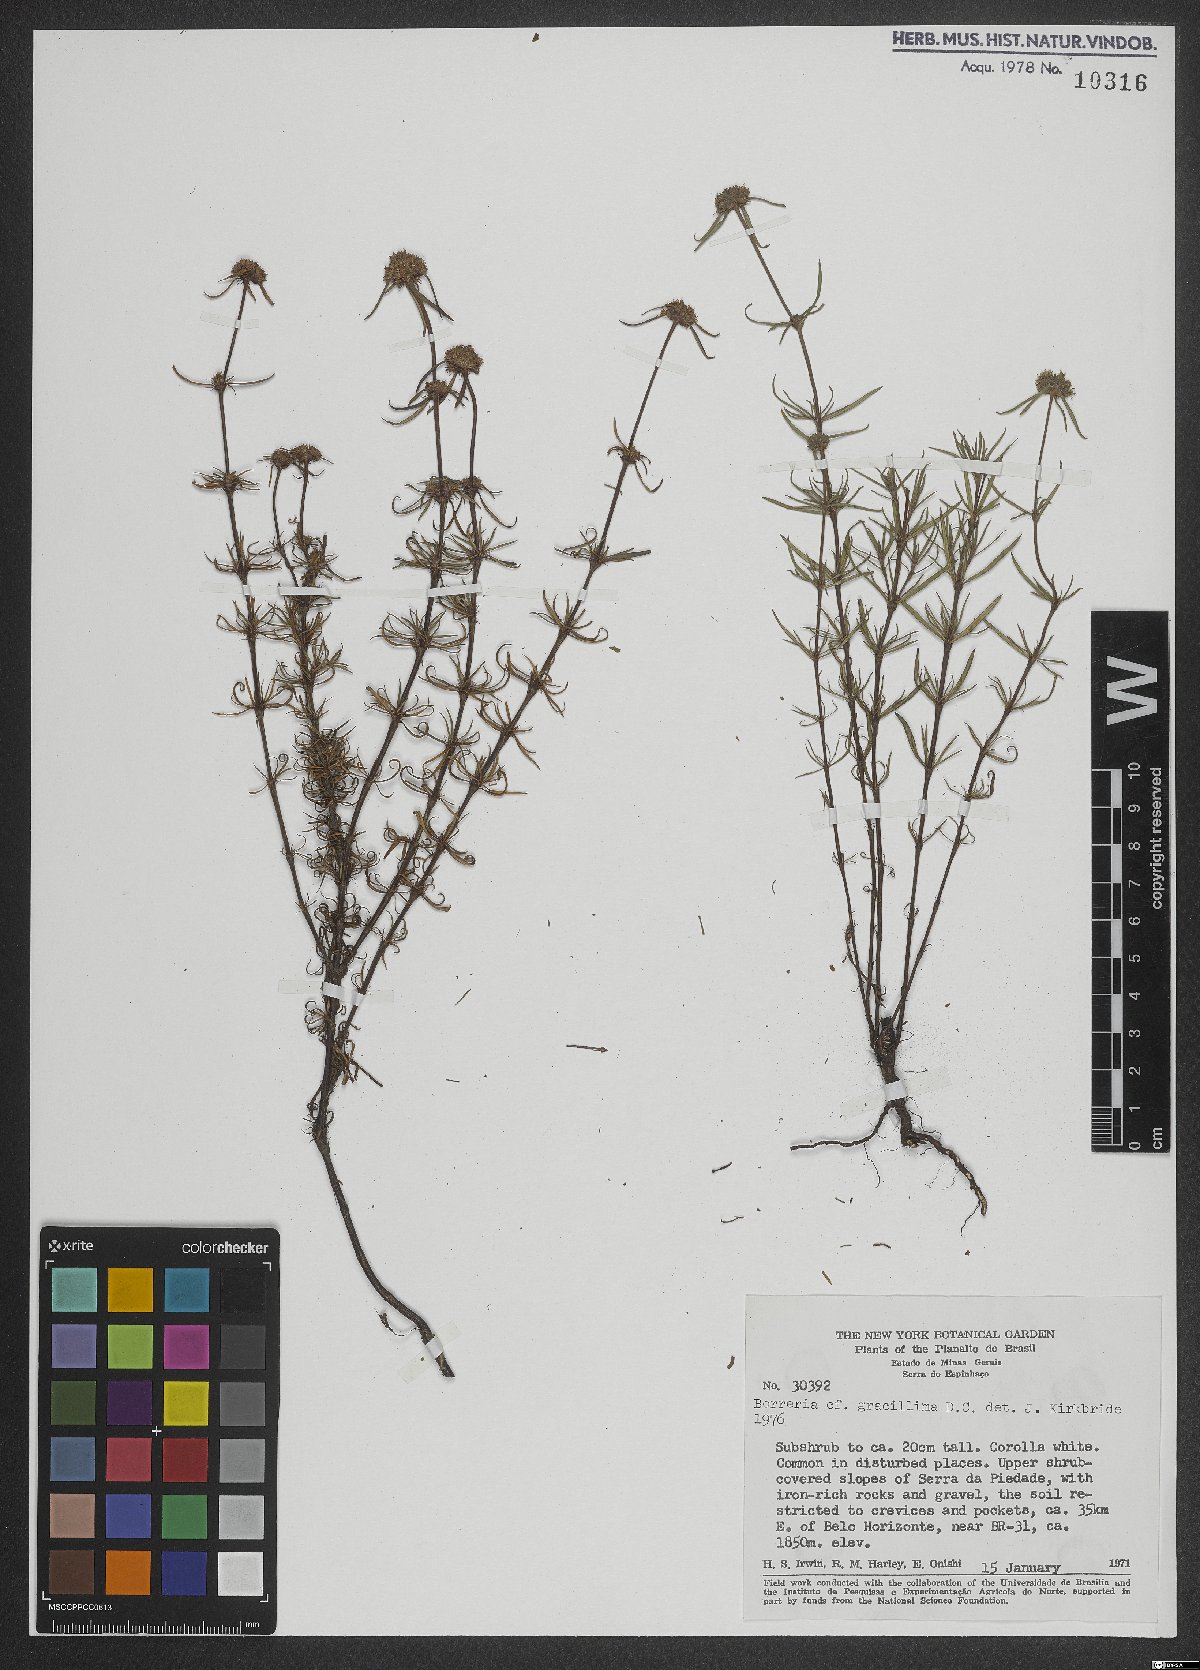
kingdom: Plantae
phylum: Tracheophyta
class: Magnoliopsida
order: Gentianales
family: Rubiaceae
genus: Spermacoce
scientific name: Spermacoce gracillima
